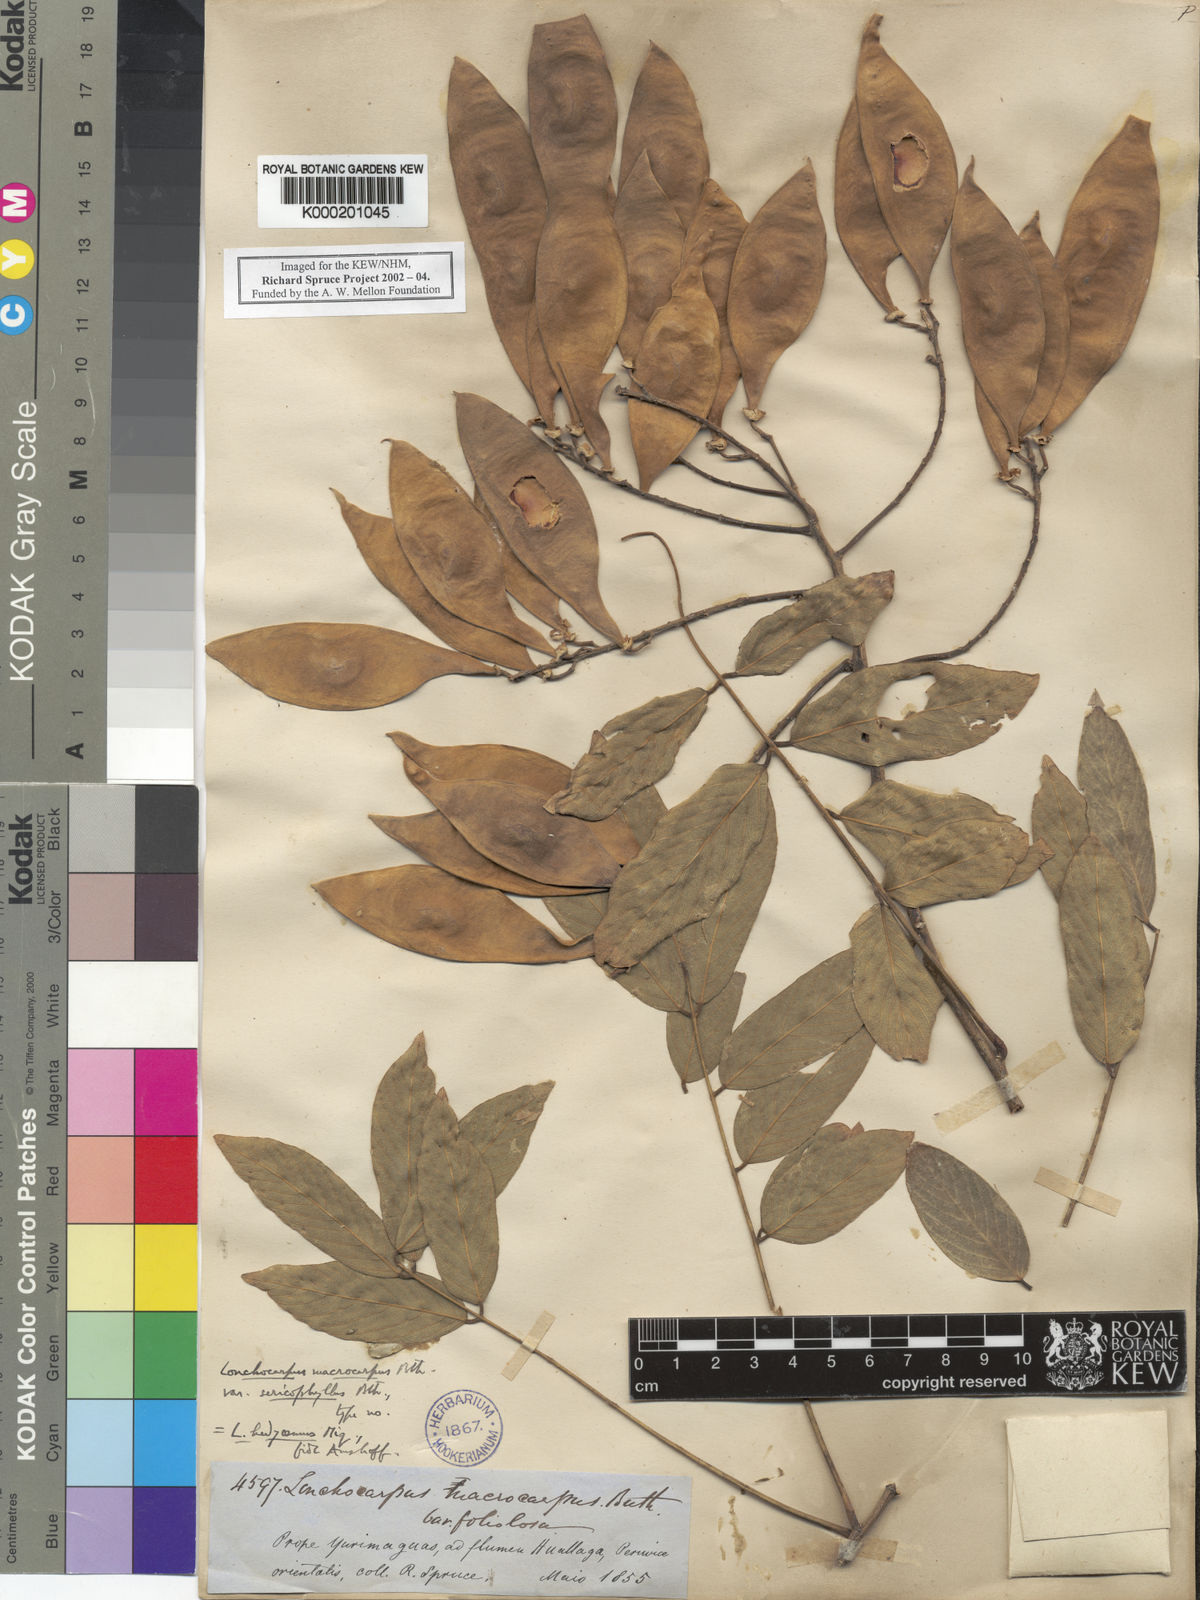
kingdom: Plantae
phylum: Tracheophyta
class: Magnoliopsida
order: Fabales
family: Fabaceae
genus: Lonchocarpus
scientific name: Lonchocarpus hedyosmus
